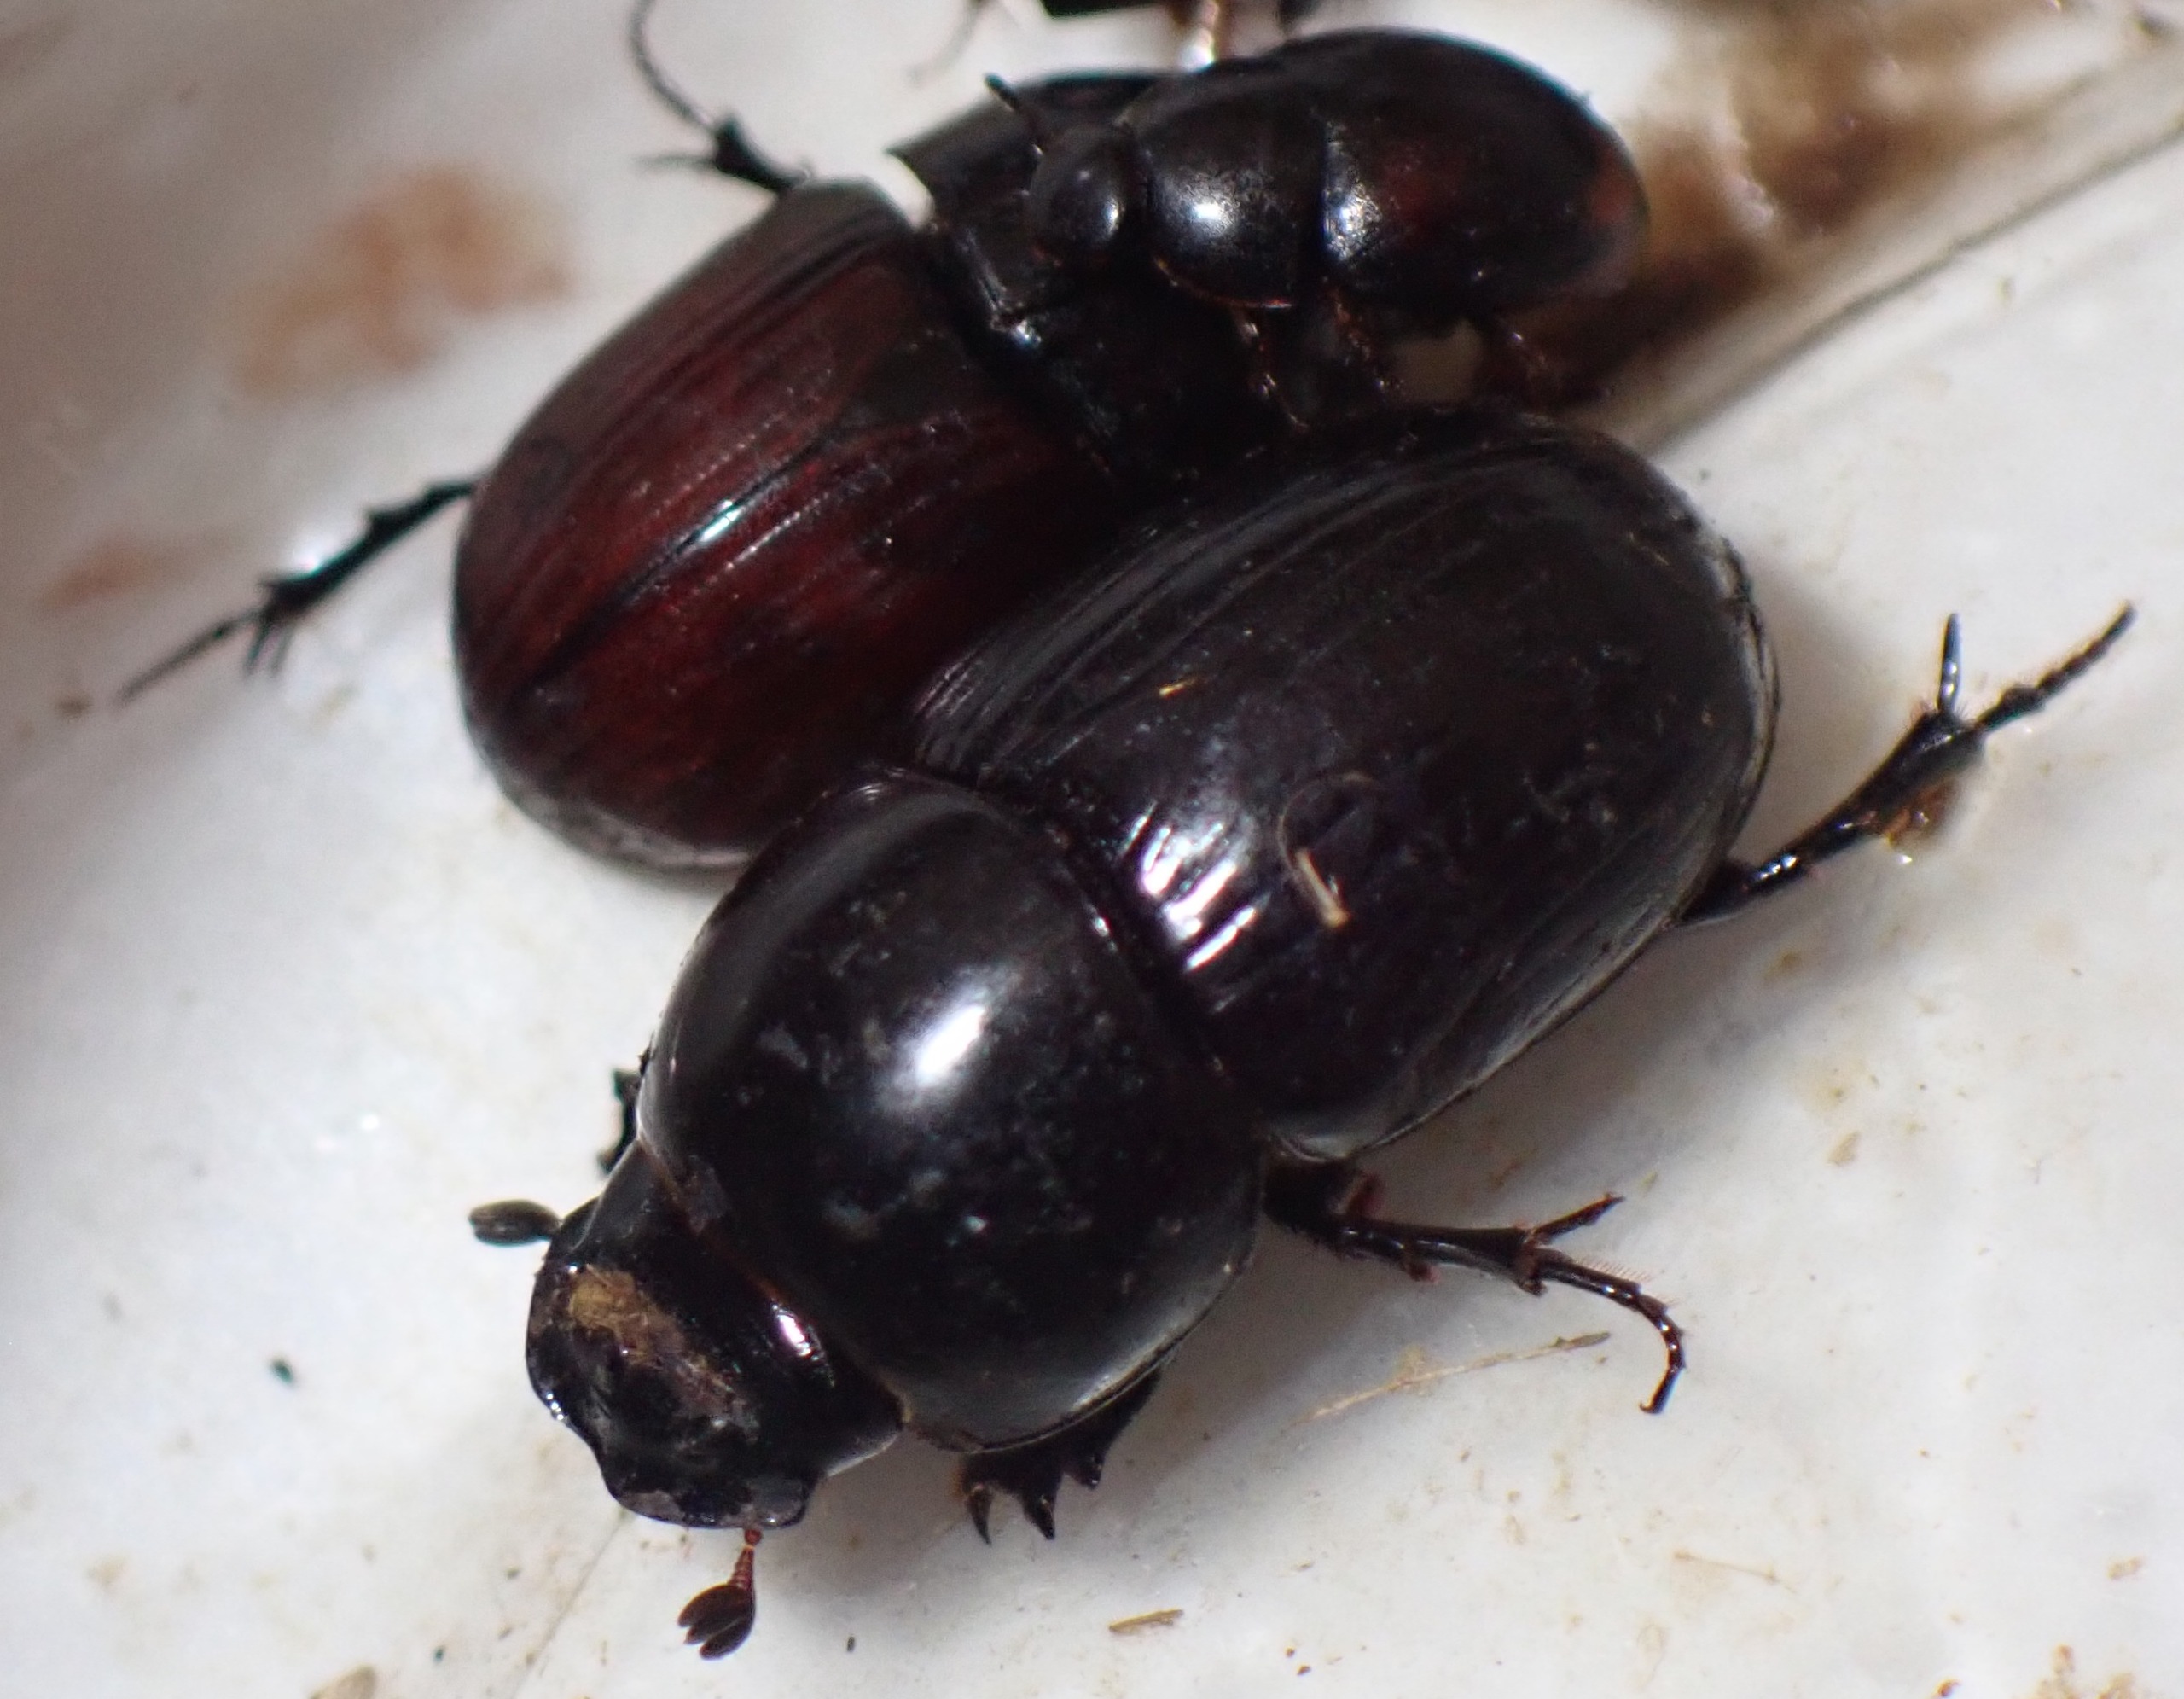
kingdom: Animalia
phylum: Arthropoda
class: Insecta
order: Coleoptera
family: Scarabaeidae
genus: Teuchestes
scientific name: Teuchestes fossor
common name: Stor møgbille
